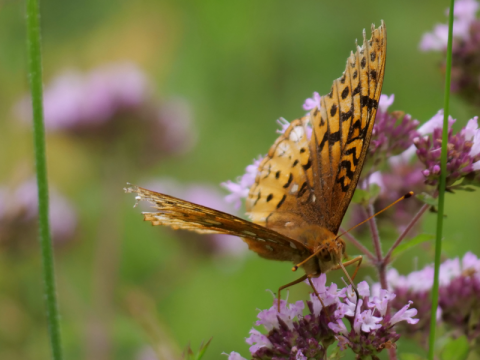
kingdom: Animalia
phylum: Arthropoda
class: Insecta
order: Lepidoptera
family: Nymphalidae
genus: Speyeria
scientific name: Speyeria cybele
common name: Great Spangled Fritillary
